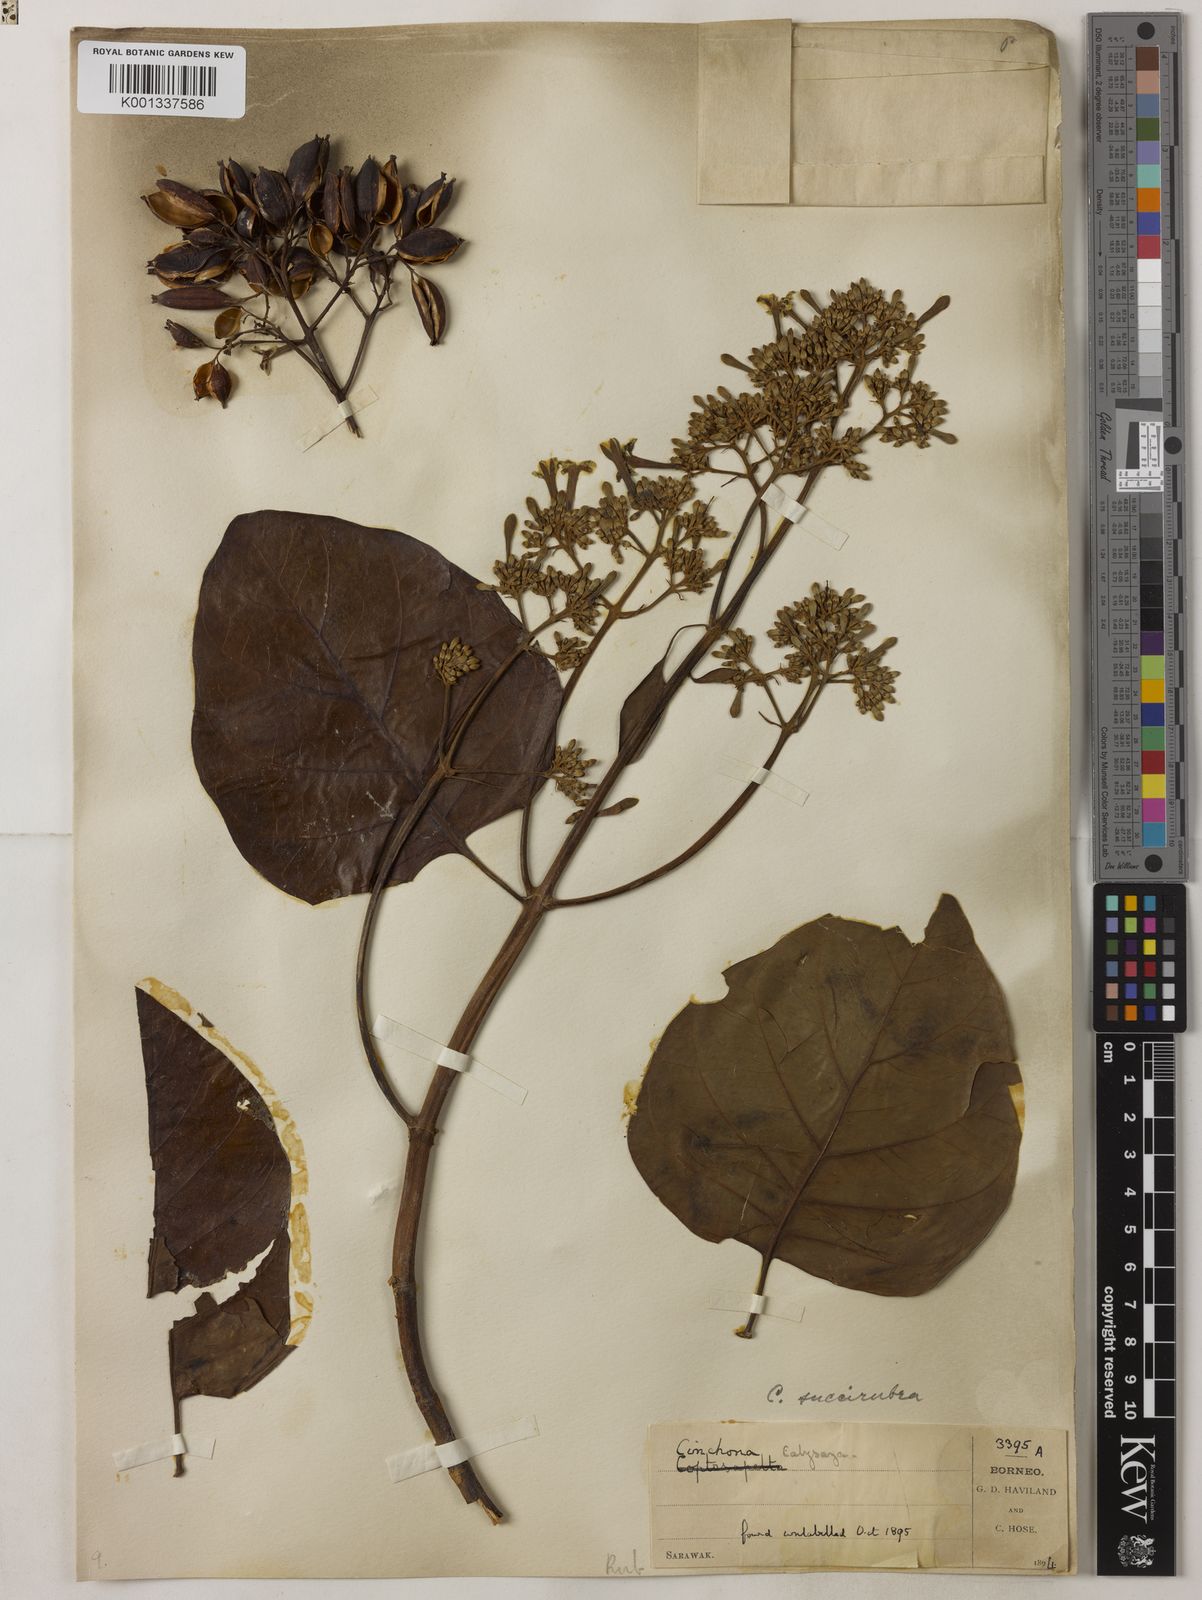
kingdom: Plantae
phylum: Tracheophyta
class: Magnoliopsida
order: Gentianales
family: Rubiaceae
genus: Cinchona
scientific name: Cinchona pubescens
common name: Quinine
